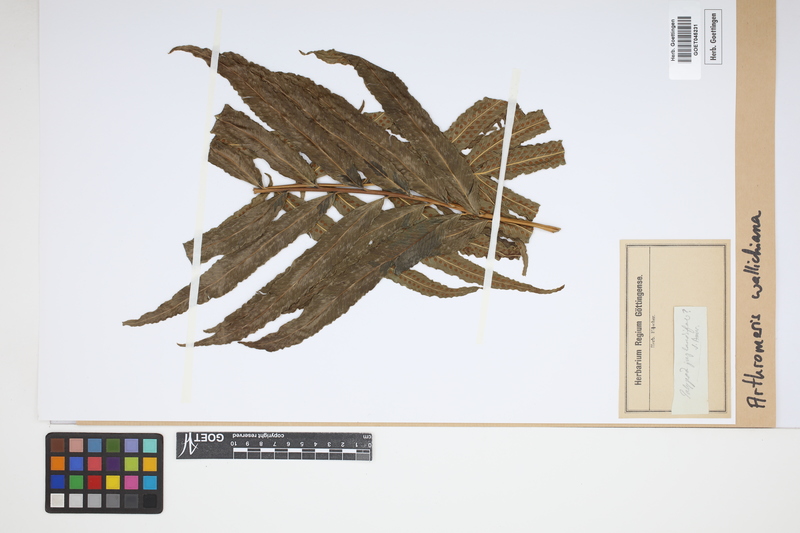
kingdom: Plantae
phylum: Tracheophyta
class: Polypodiopsida
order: Polypodiales
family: Polypodiaceae
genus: Selliguea
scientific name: Selliguea capitellata
